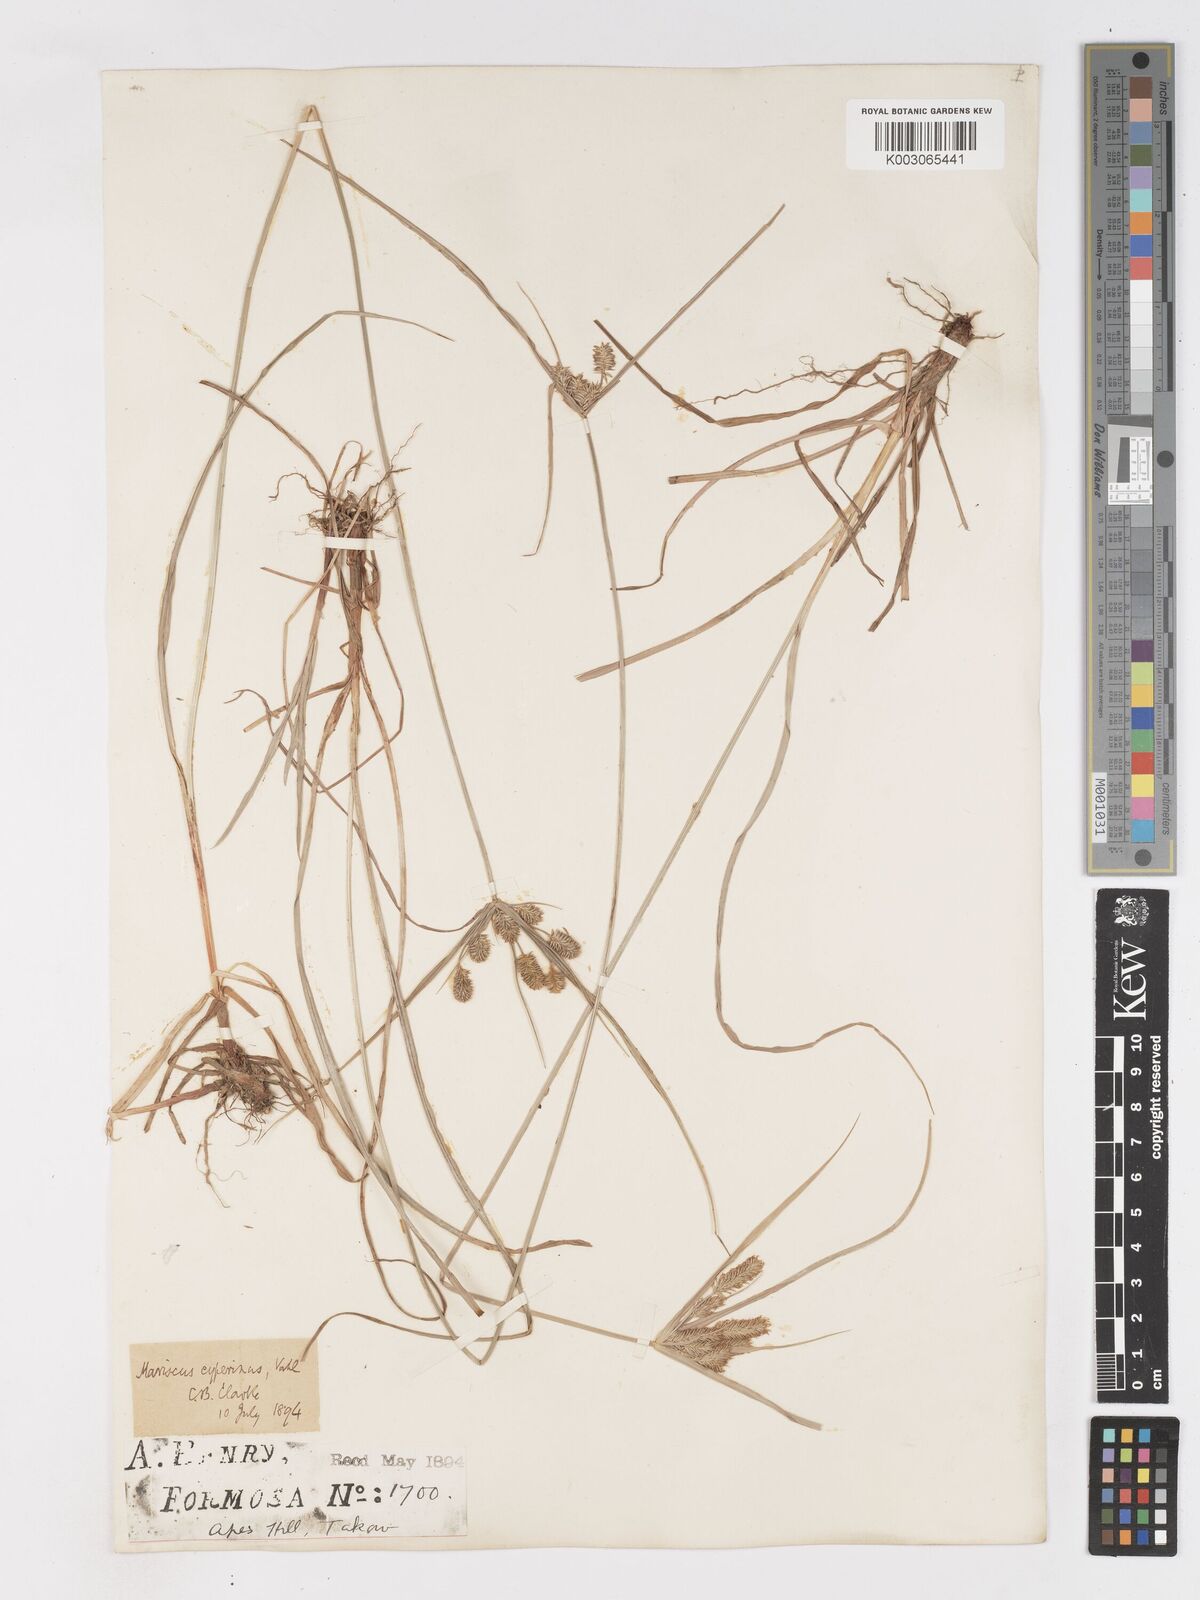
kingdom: Plantae
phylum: Tracheophyta
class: Liliopsida
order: Poales
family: Cyperaceae
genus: Cyperus
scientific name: Cyperus cyperinus
